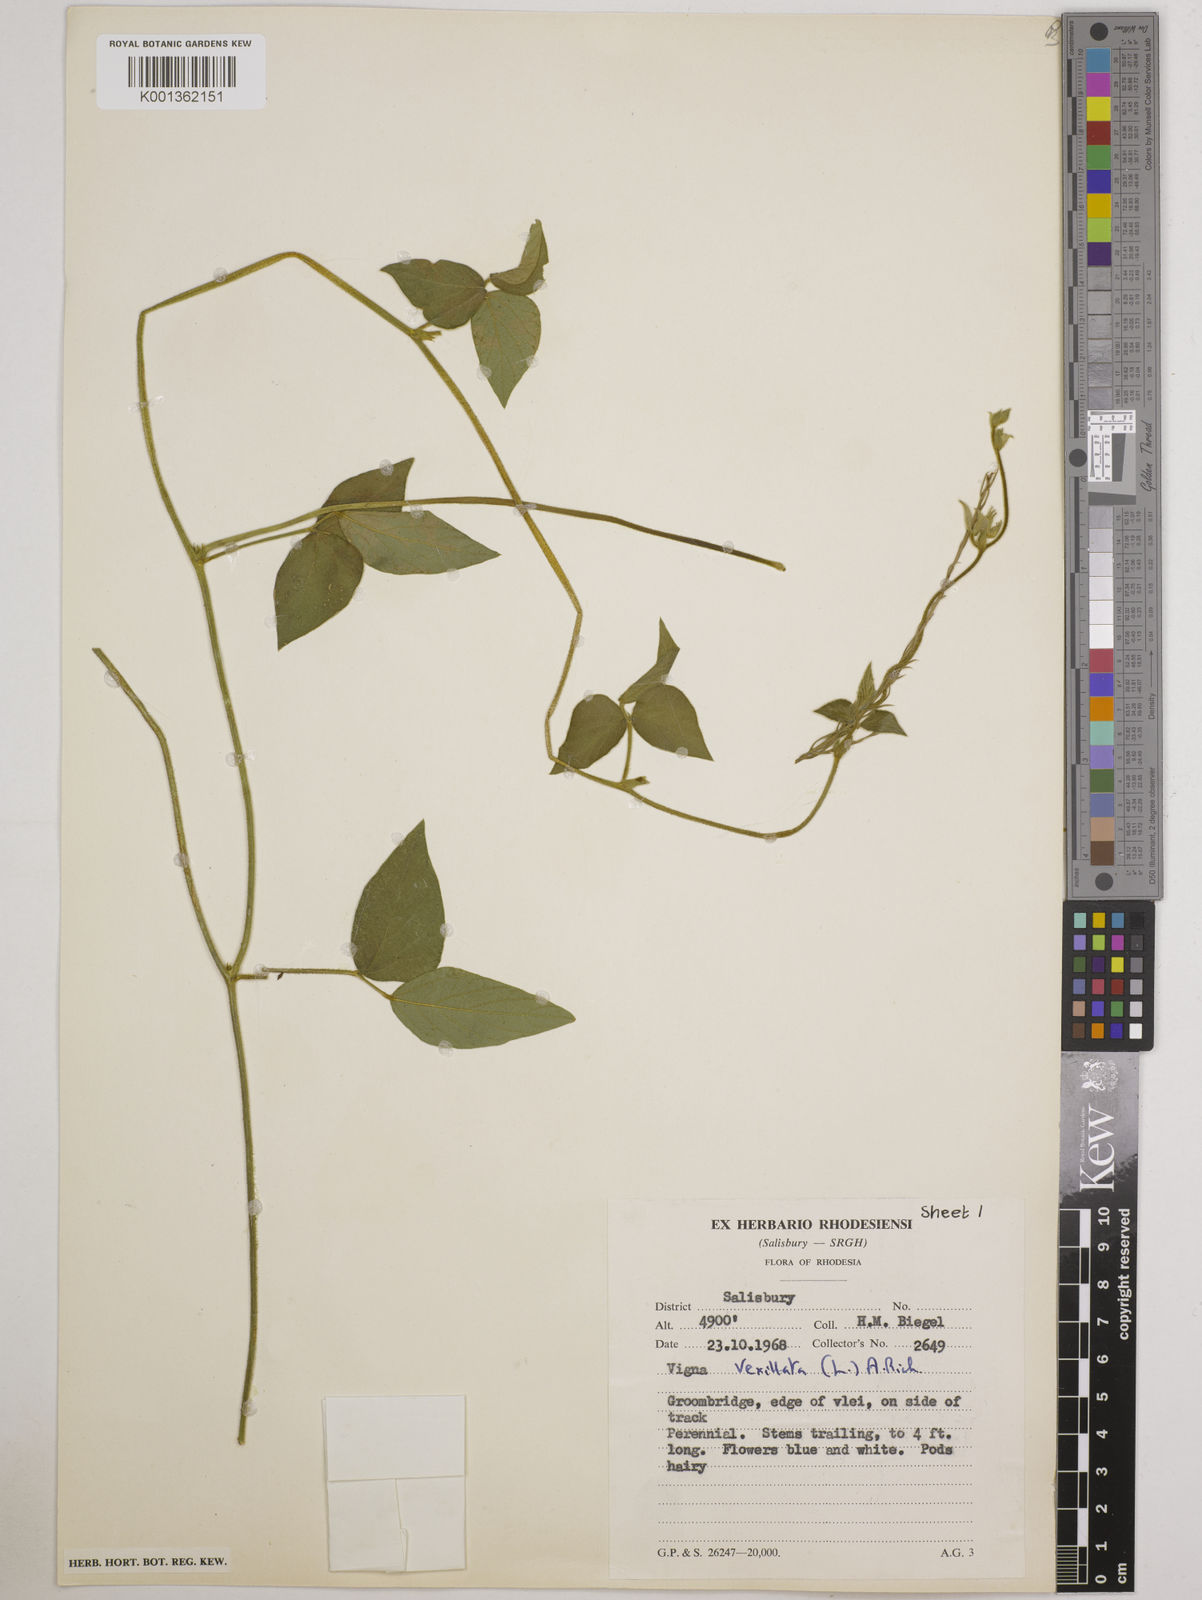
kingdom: Plantae
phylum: Tracheophyta
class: Magnoliopsida
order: Fabales
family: Fabaceae
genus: Vigna
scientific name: Vigna vexillata
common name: Zombi pea
